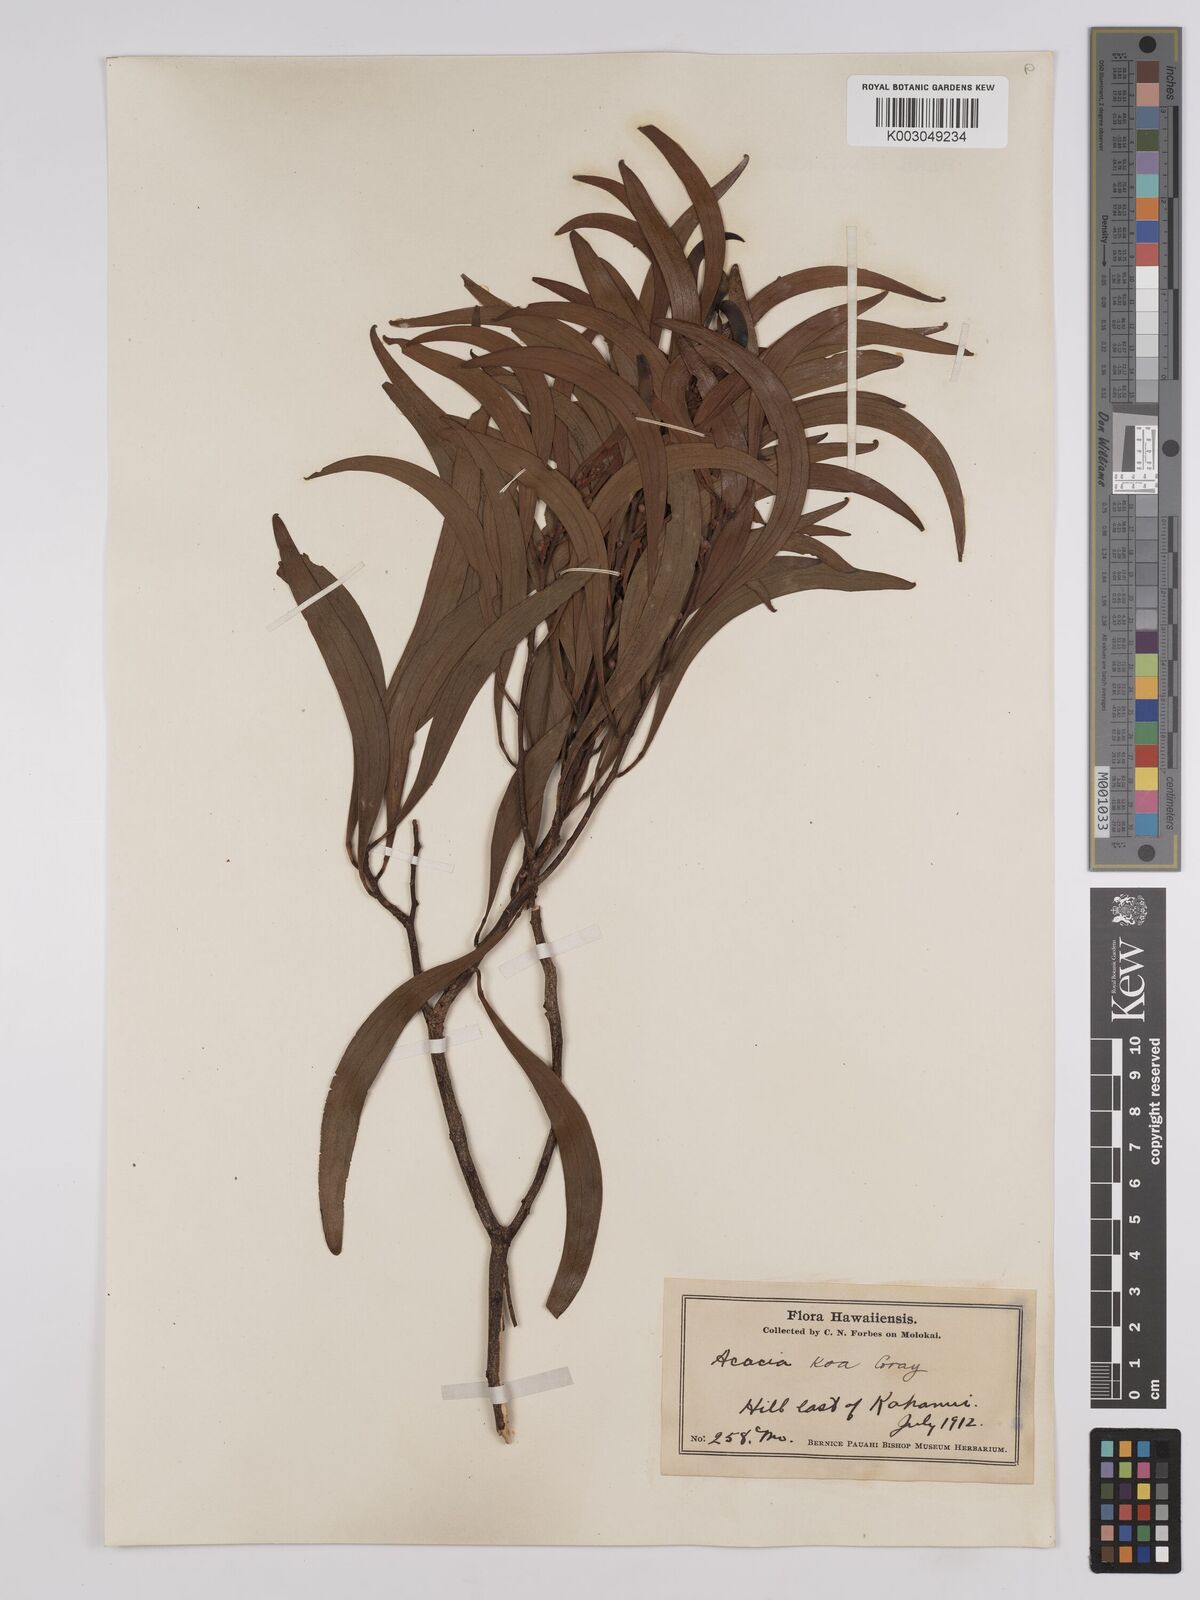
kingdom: Plantae
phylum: Tracheophyta
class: Magnoliopsida
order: Fabales
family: Fabaceae
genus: Acacia
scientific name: Acacia koa
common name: Gray koa
